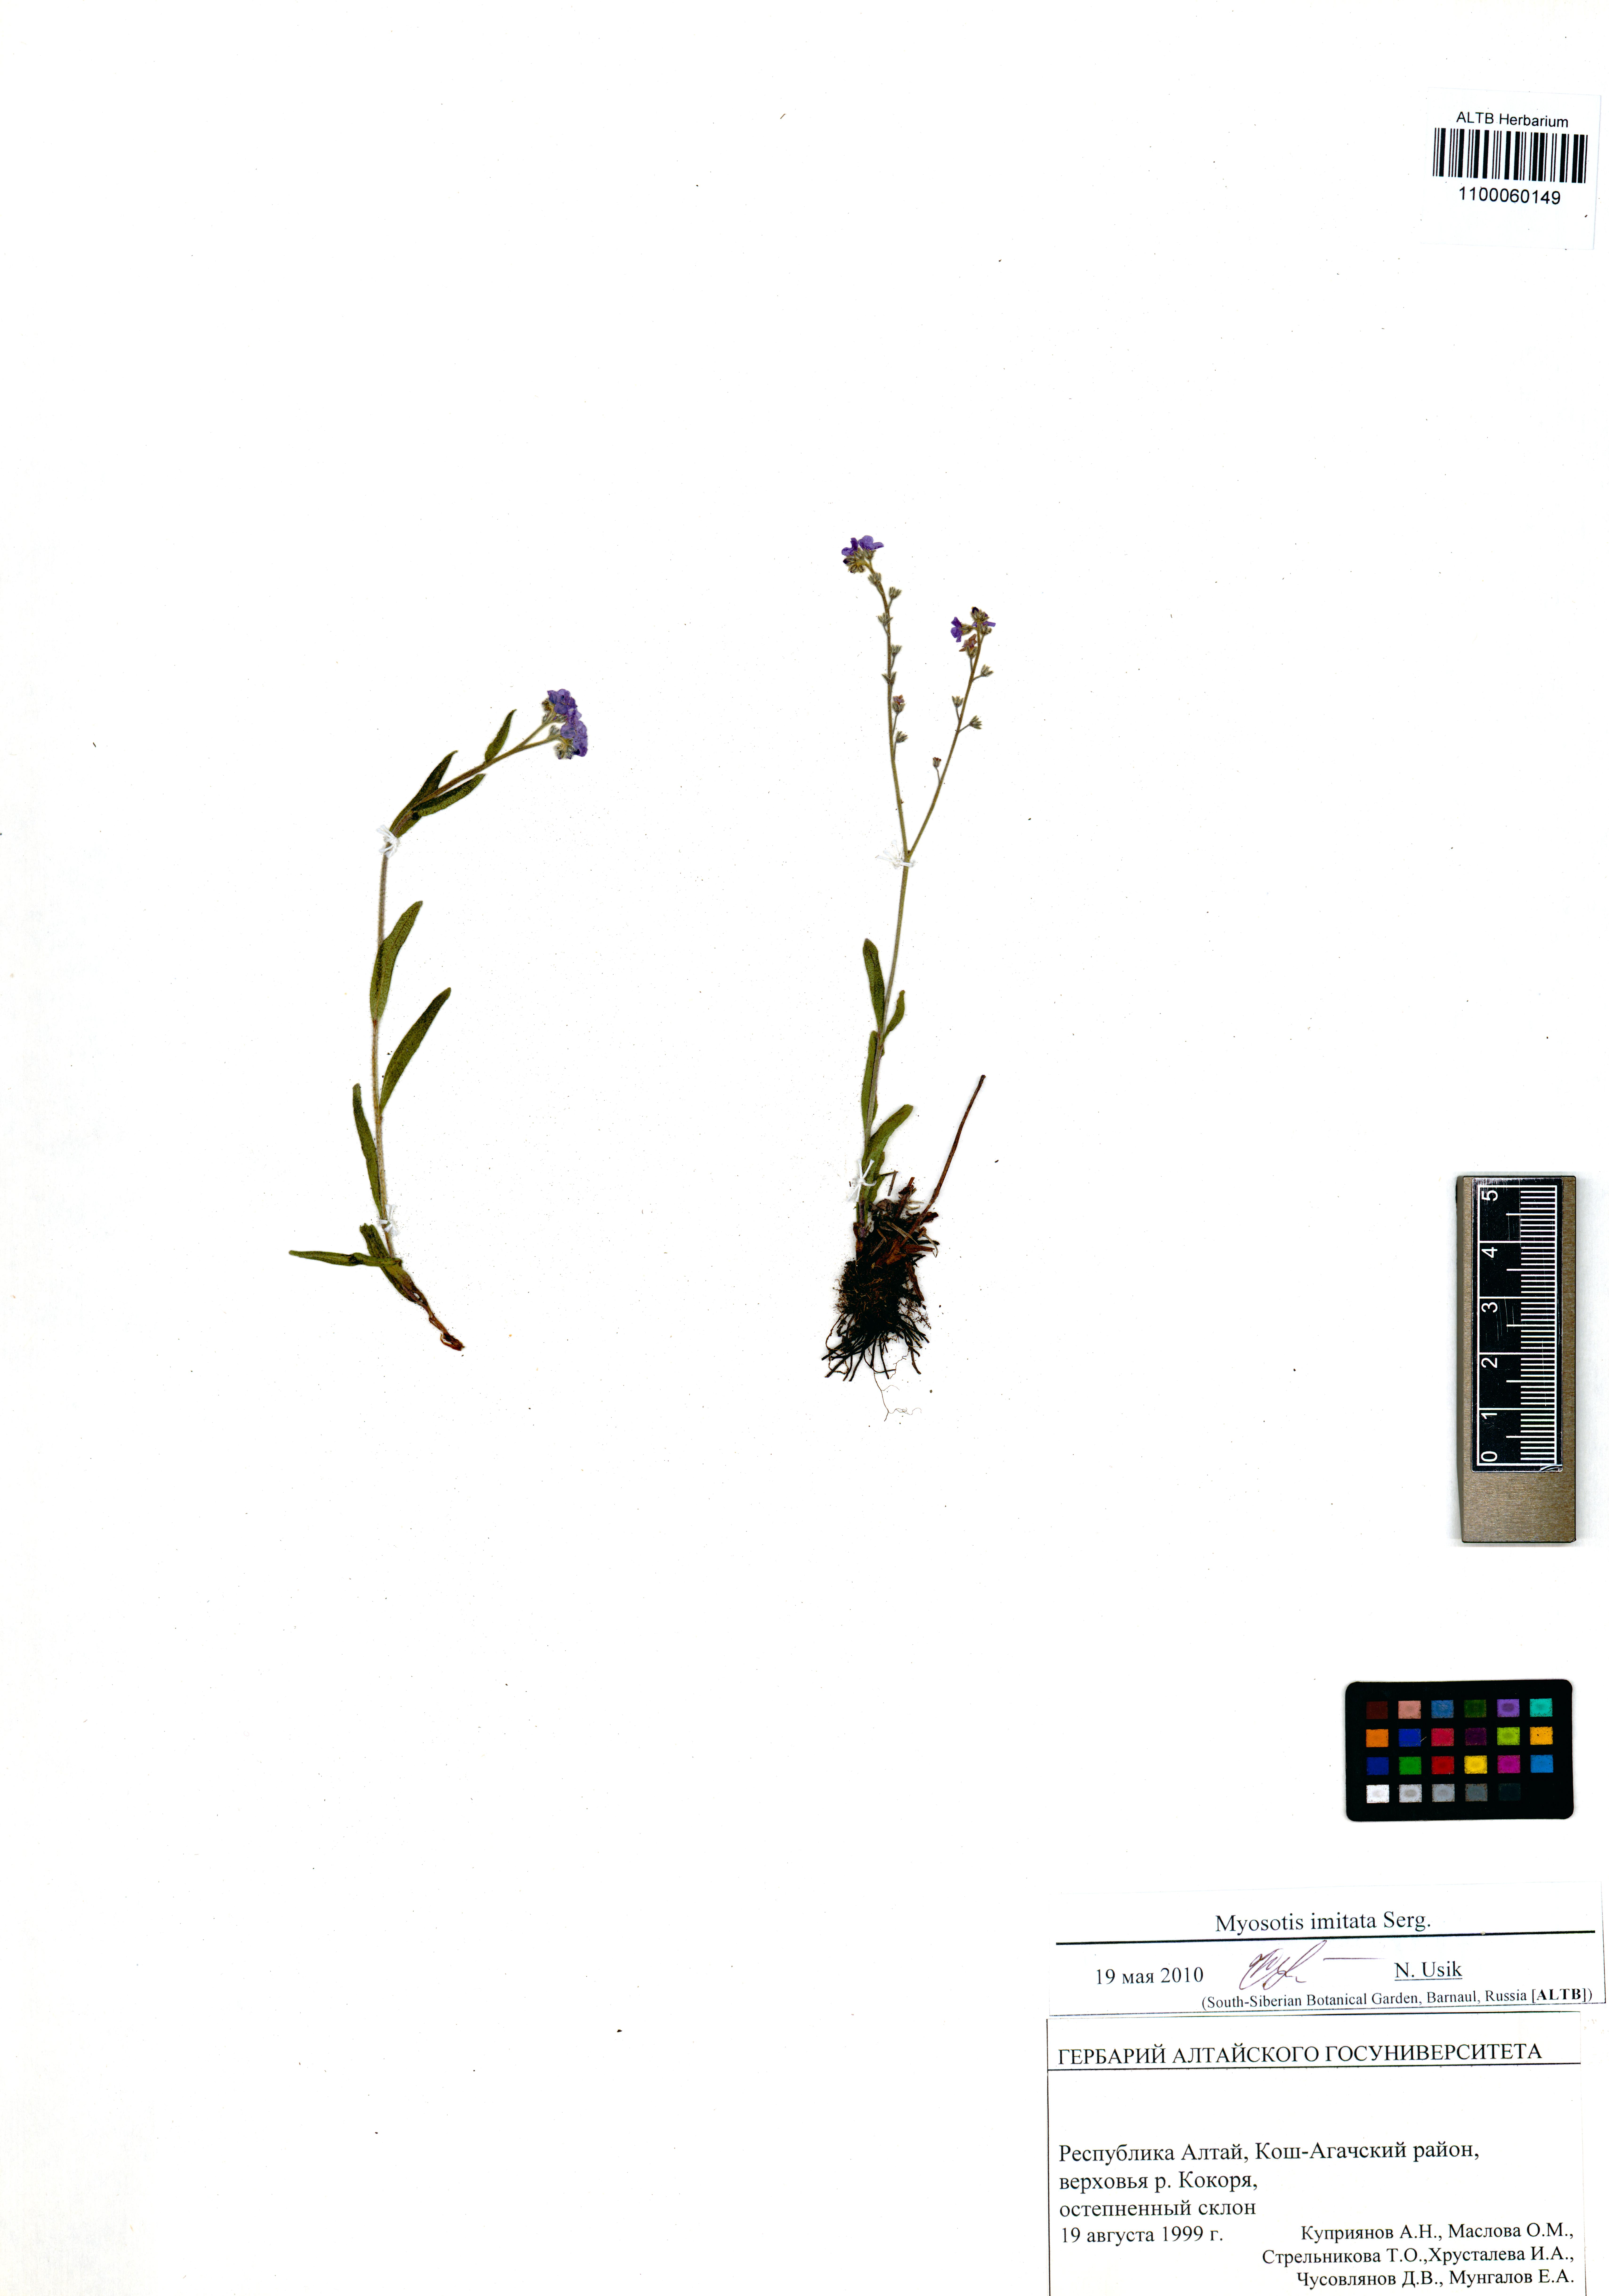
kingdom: Plantae
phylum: Tracheophyta
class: Magnoliopsida
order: Boraginales
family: Boraginaceae
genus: Myosotis
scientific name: Myosotis imitata
